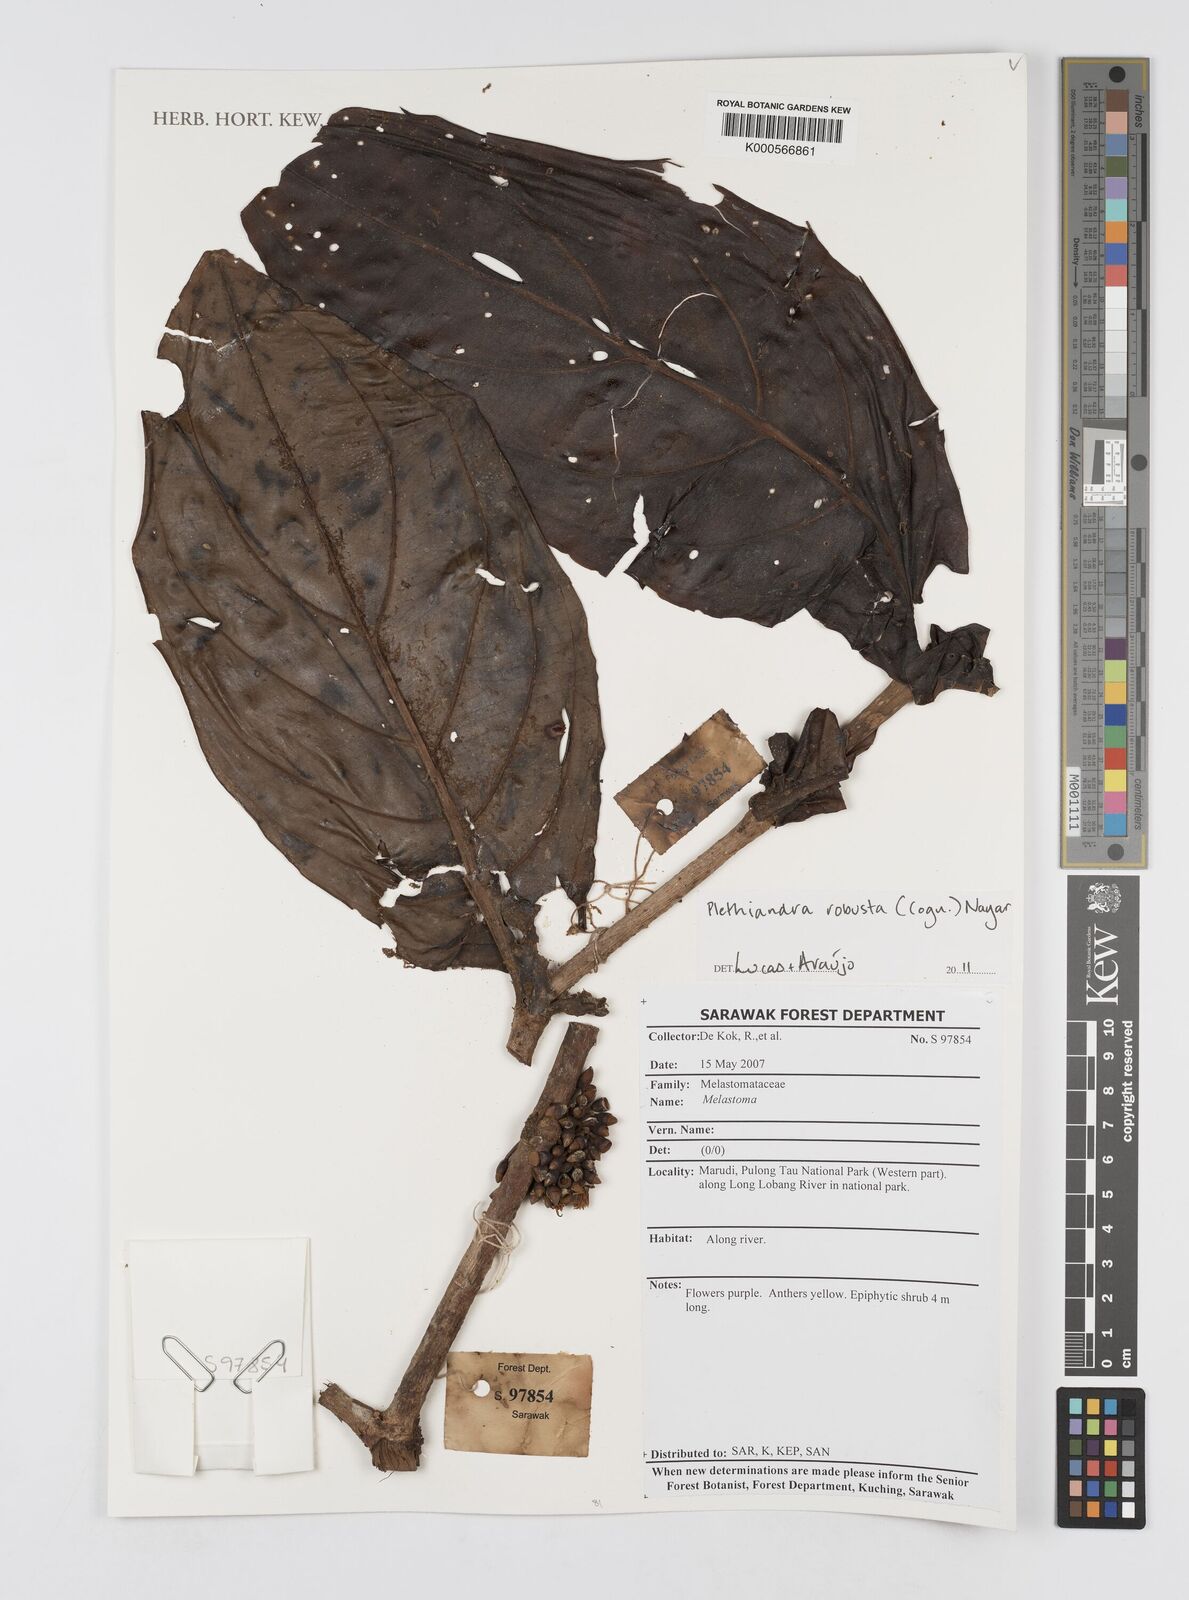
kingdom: Plantae
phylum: Tracheophyta
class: Magnoliopsida
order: Myrtales
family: Melastomataceae
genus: Plethiandra
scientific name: Plethiandra robusta
